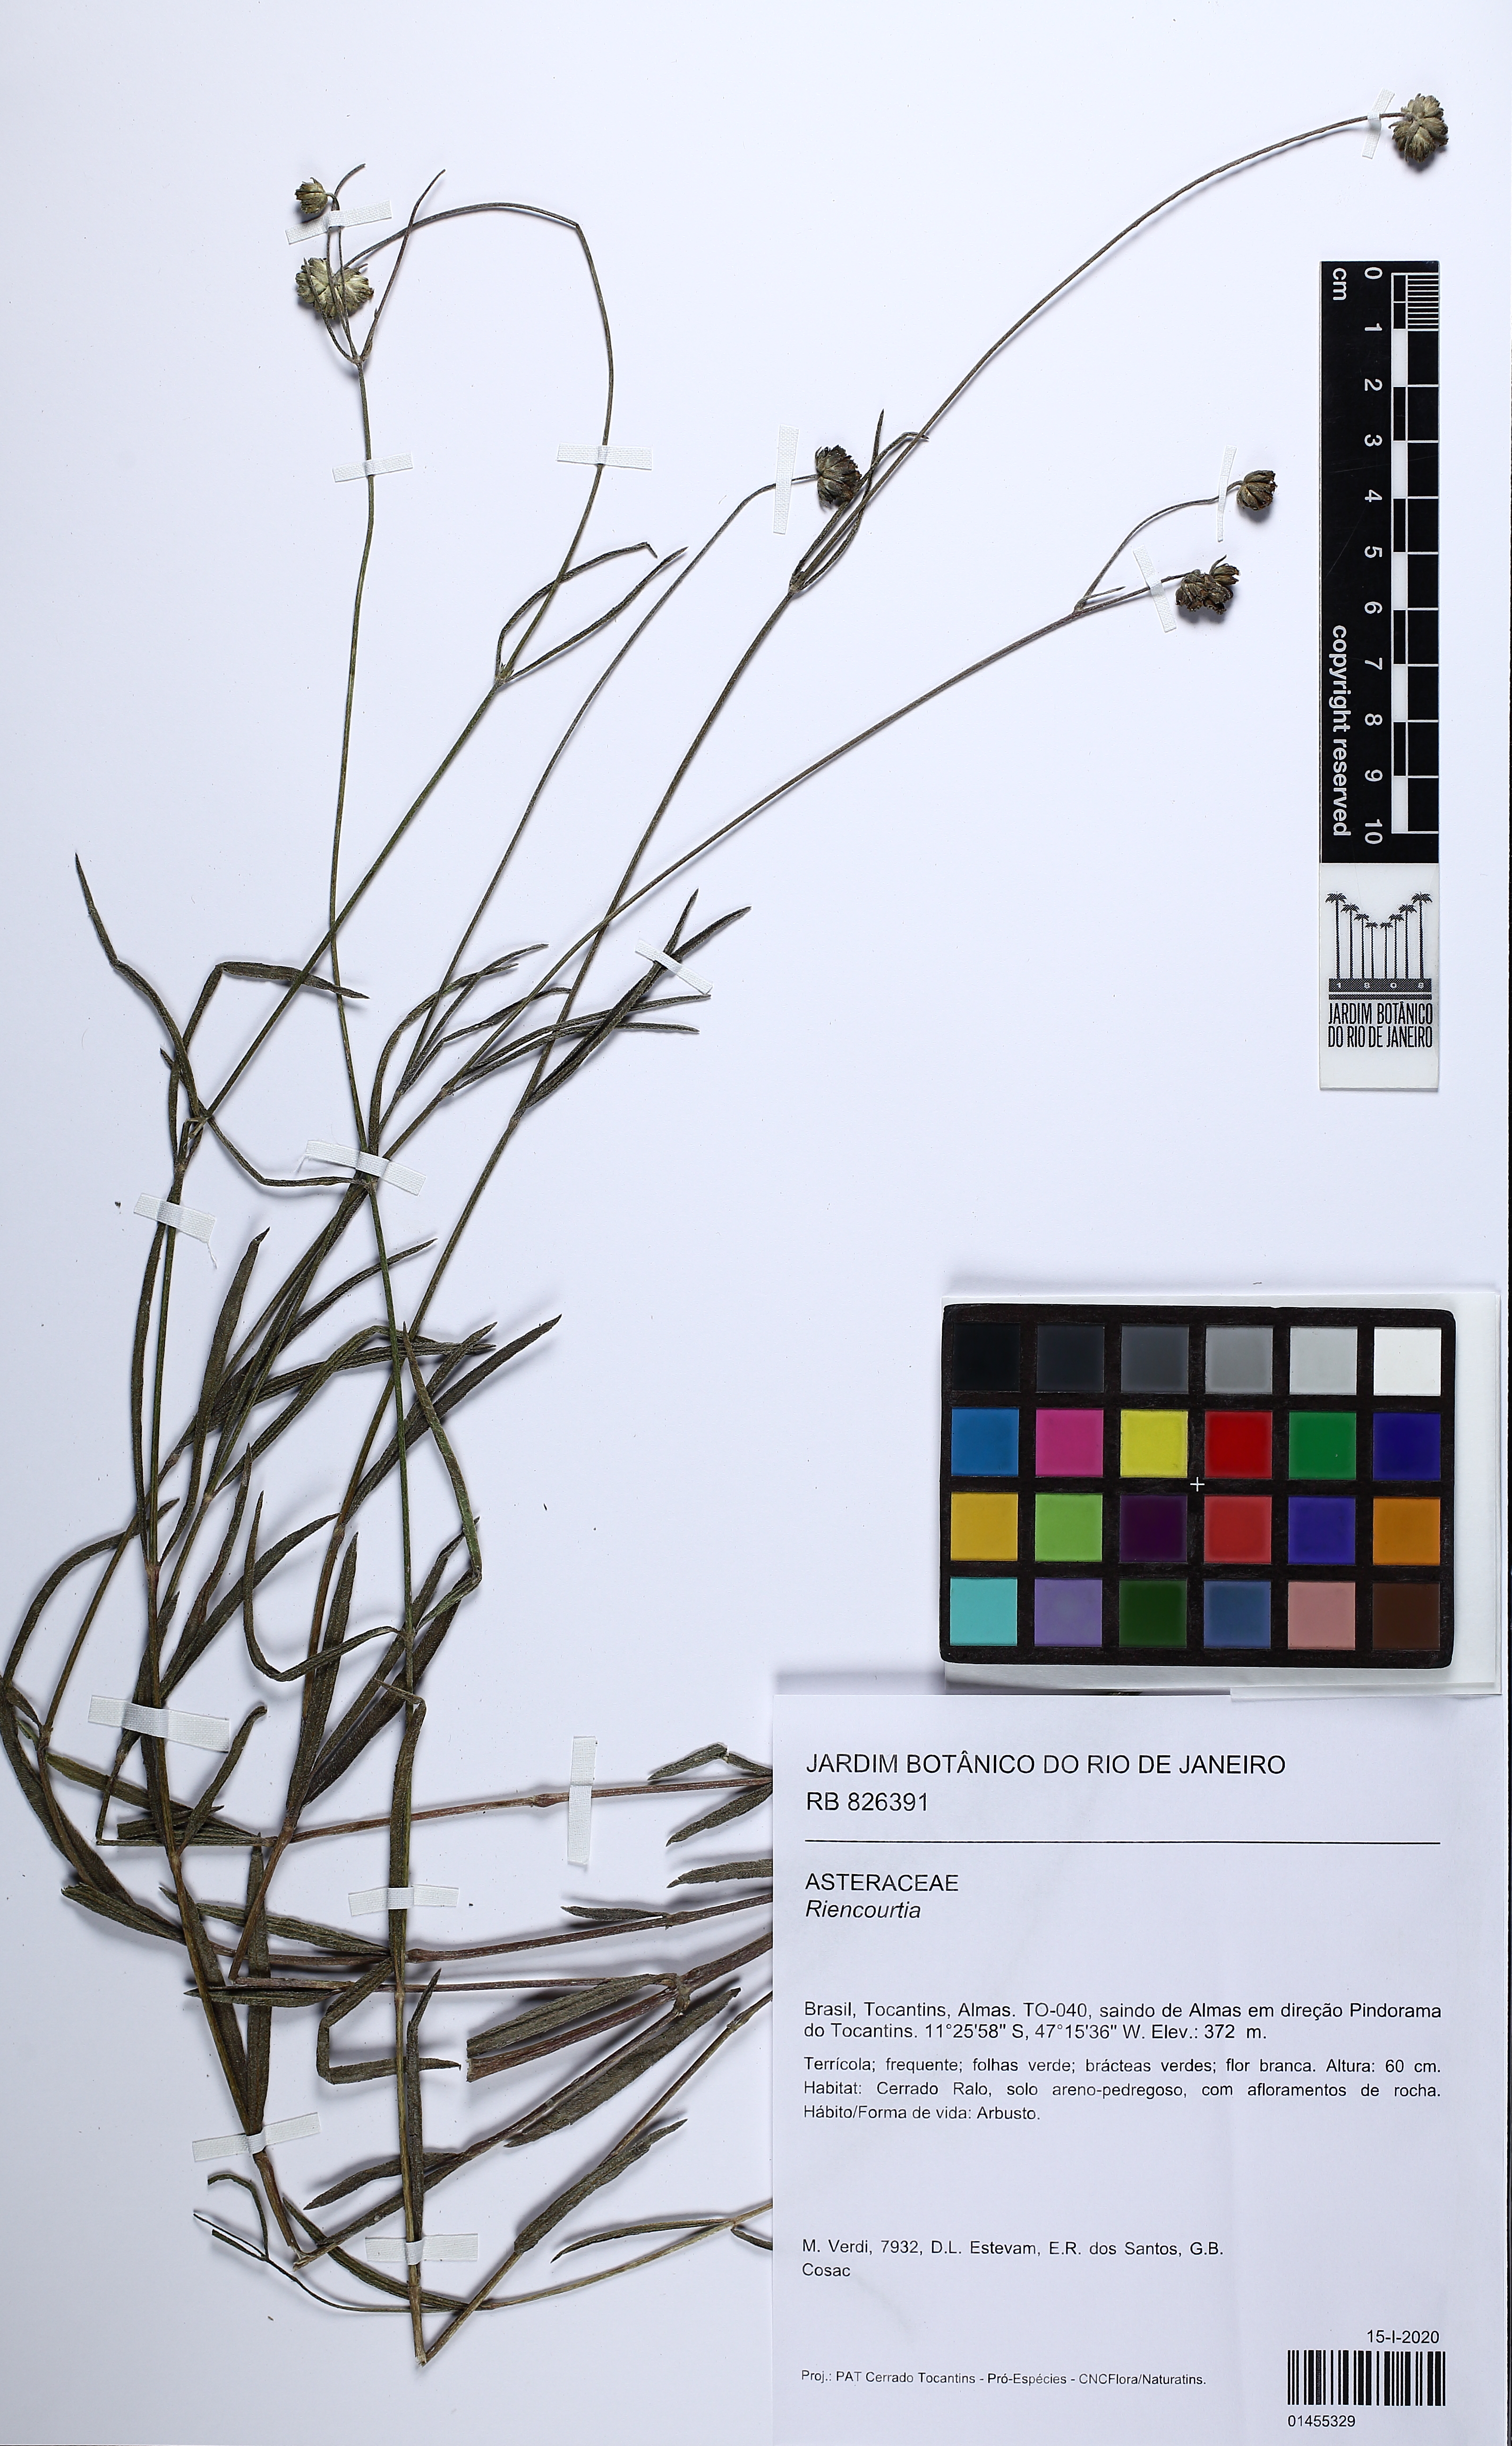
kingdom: Plantae
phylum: Tracheophyta
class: Magnoliopsida
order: Asterales
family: Asteraceae
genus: Riencourtia
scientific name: Riencourtia
